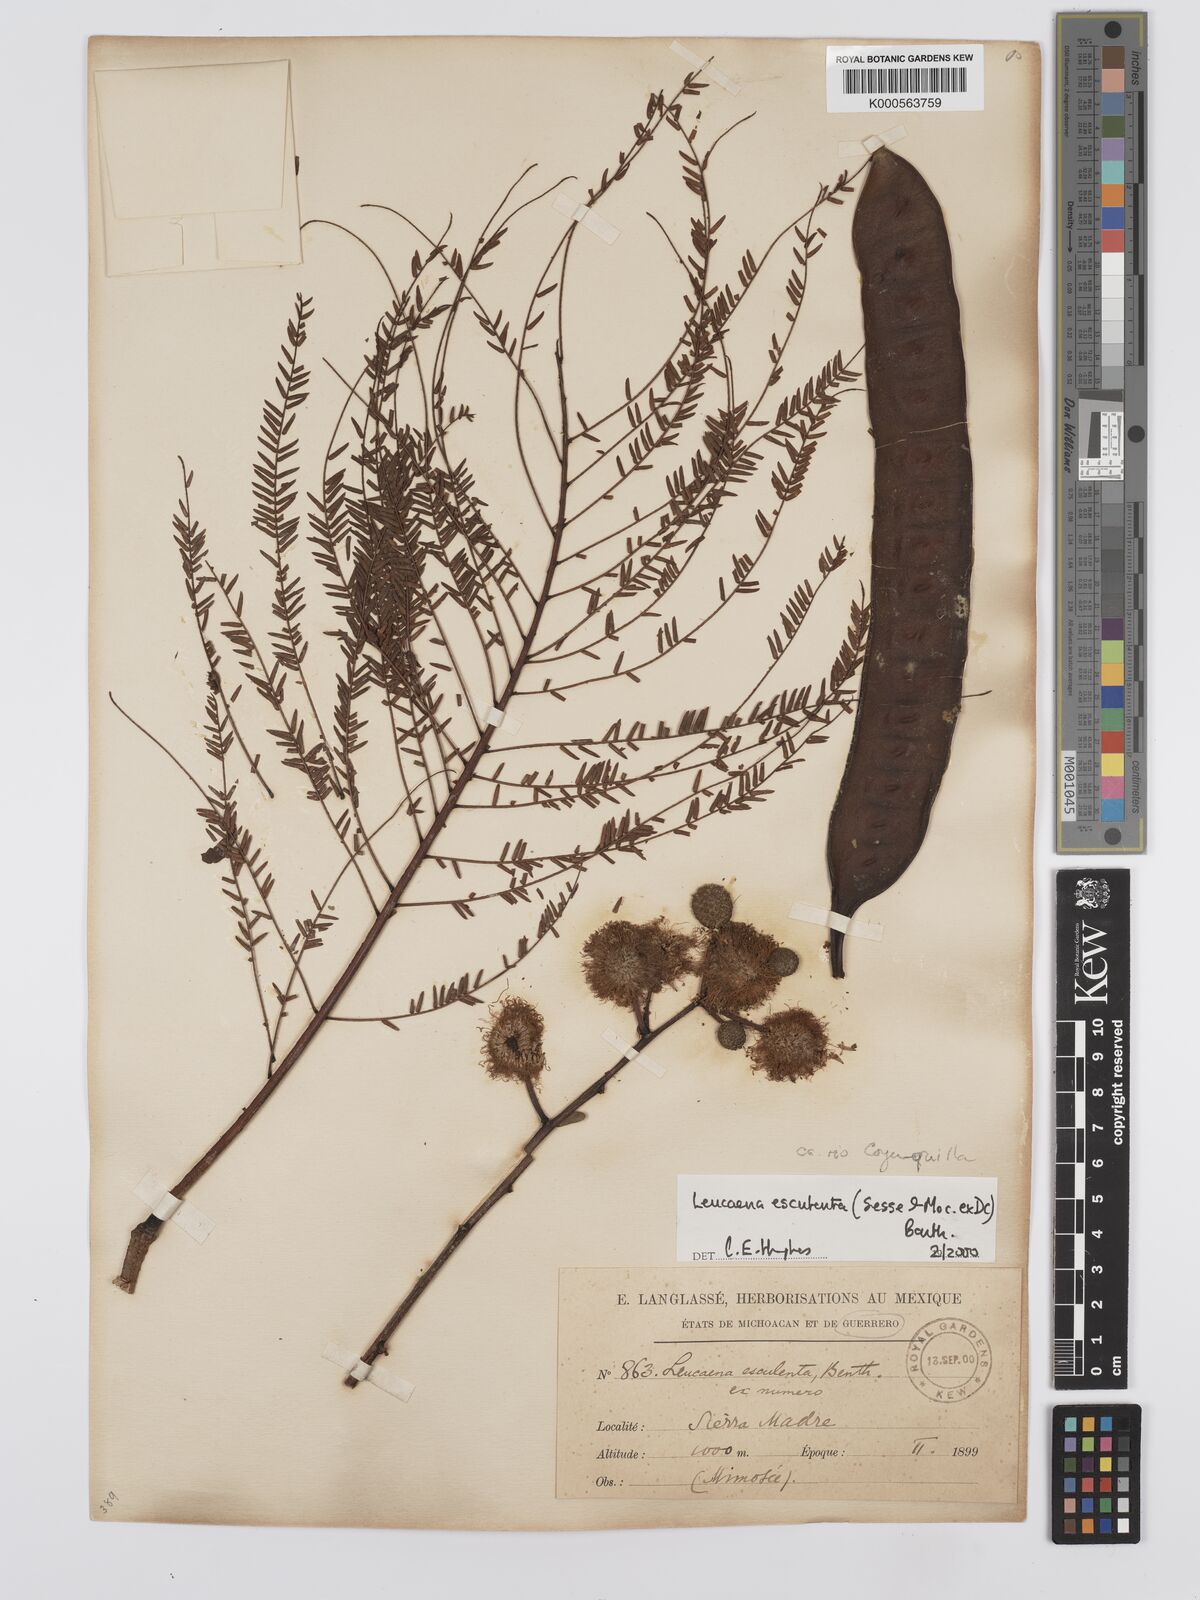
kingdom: Plantae
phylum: Tracheophyta
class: Magnoliopsida
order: Fabales
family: Fabaceae
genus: Leucaena
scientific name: Leucaena esculenta
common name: Guaje
